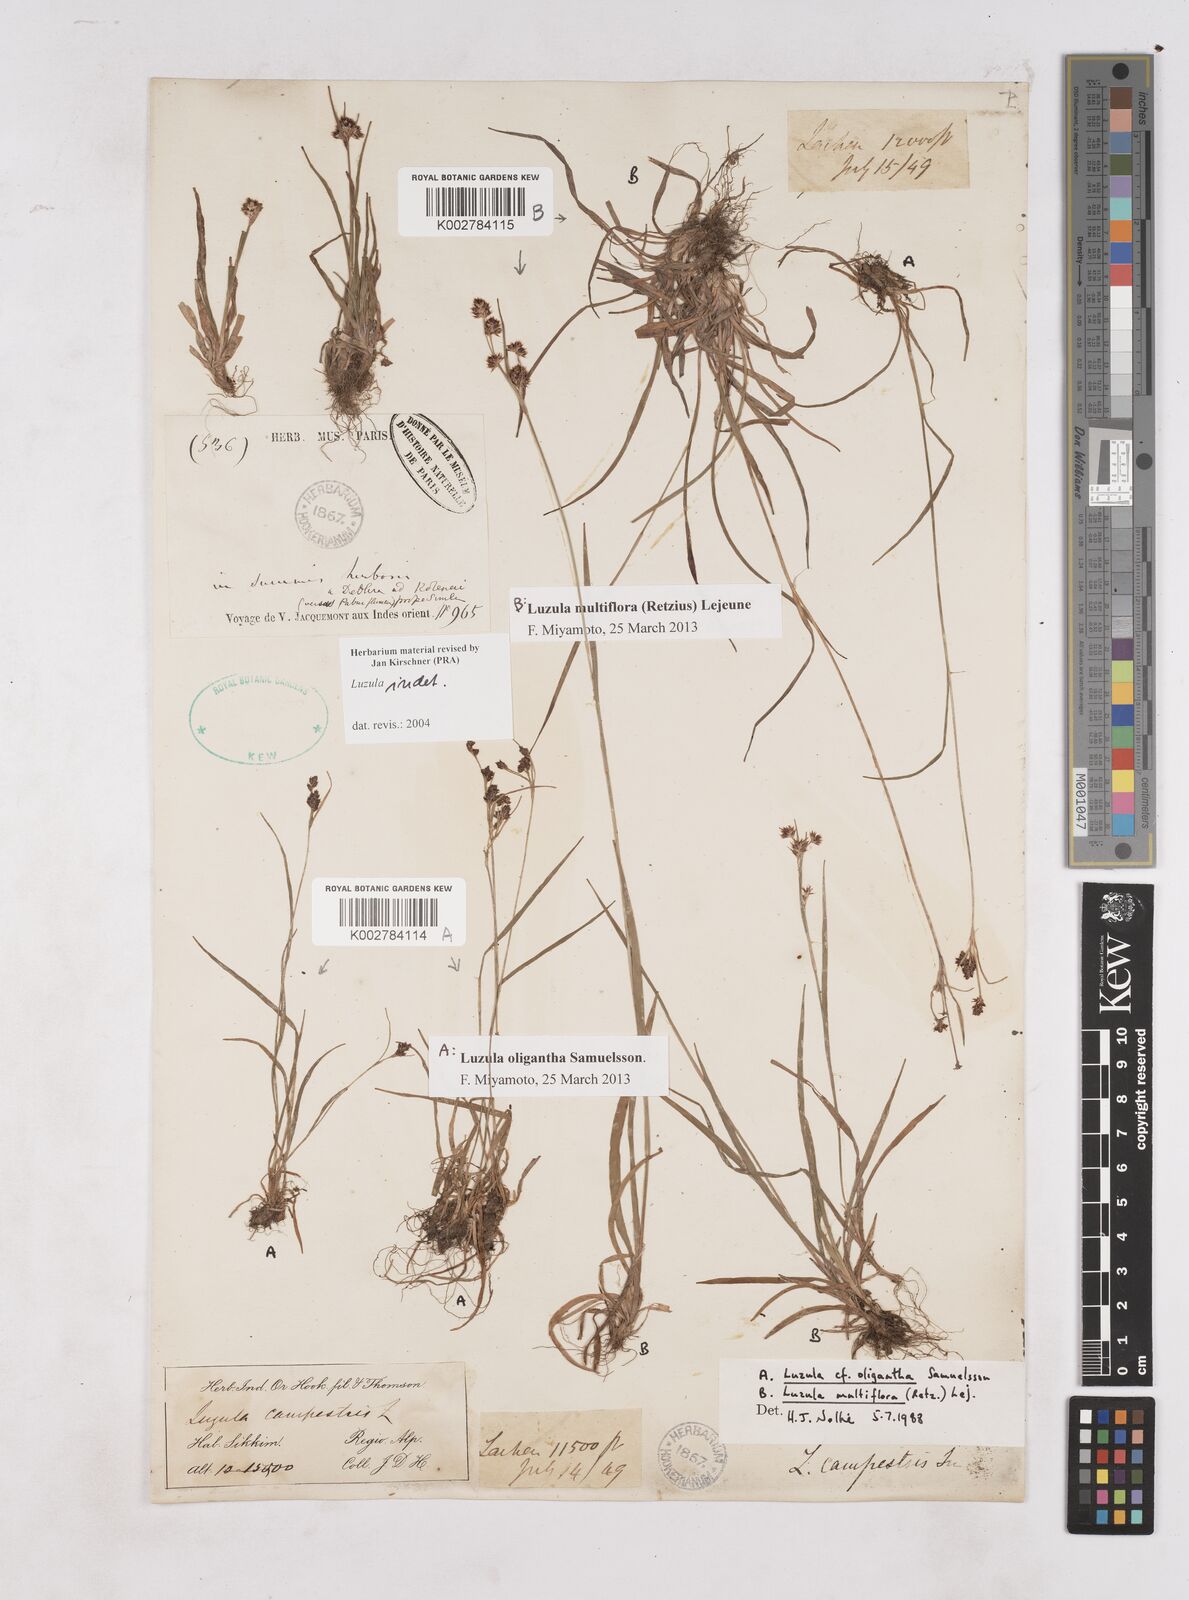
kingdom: Plantae
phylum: Tracheophyta
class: Liliopsida
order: Poales
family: Juncaceae
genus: Luzula
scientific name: Luzula
